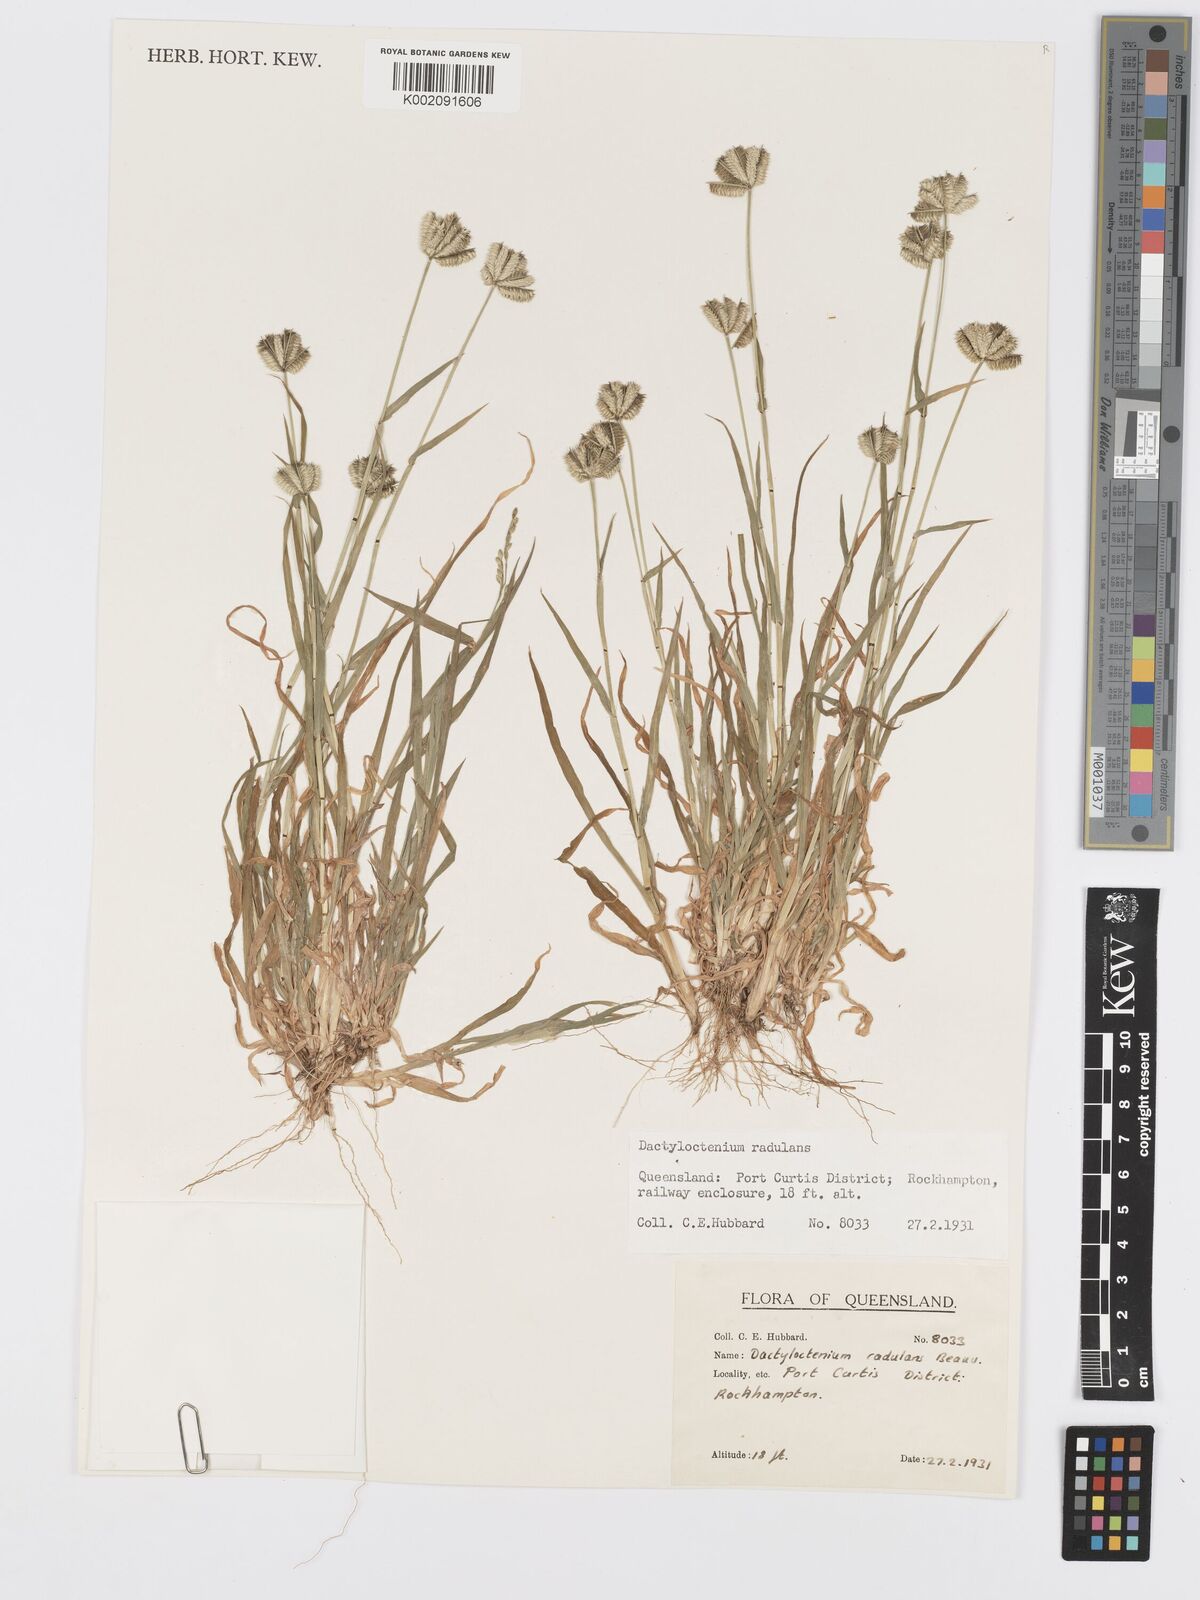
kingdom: Plantae
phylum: Tracheophyta
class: Liliopsida
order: Poales
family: Poaceae
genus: Dactyloctenium
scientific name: Dactyloctenium radulans
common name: Button-grass
